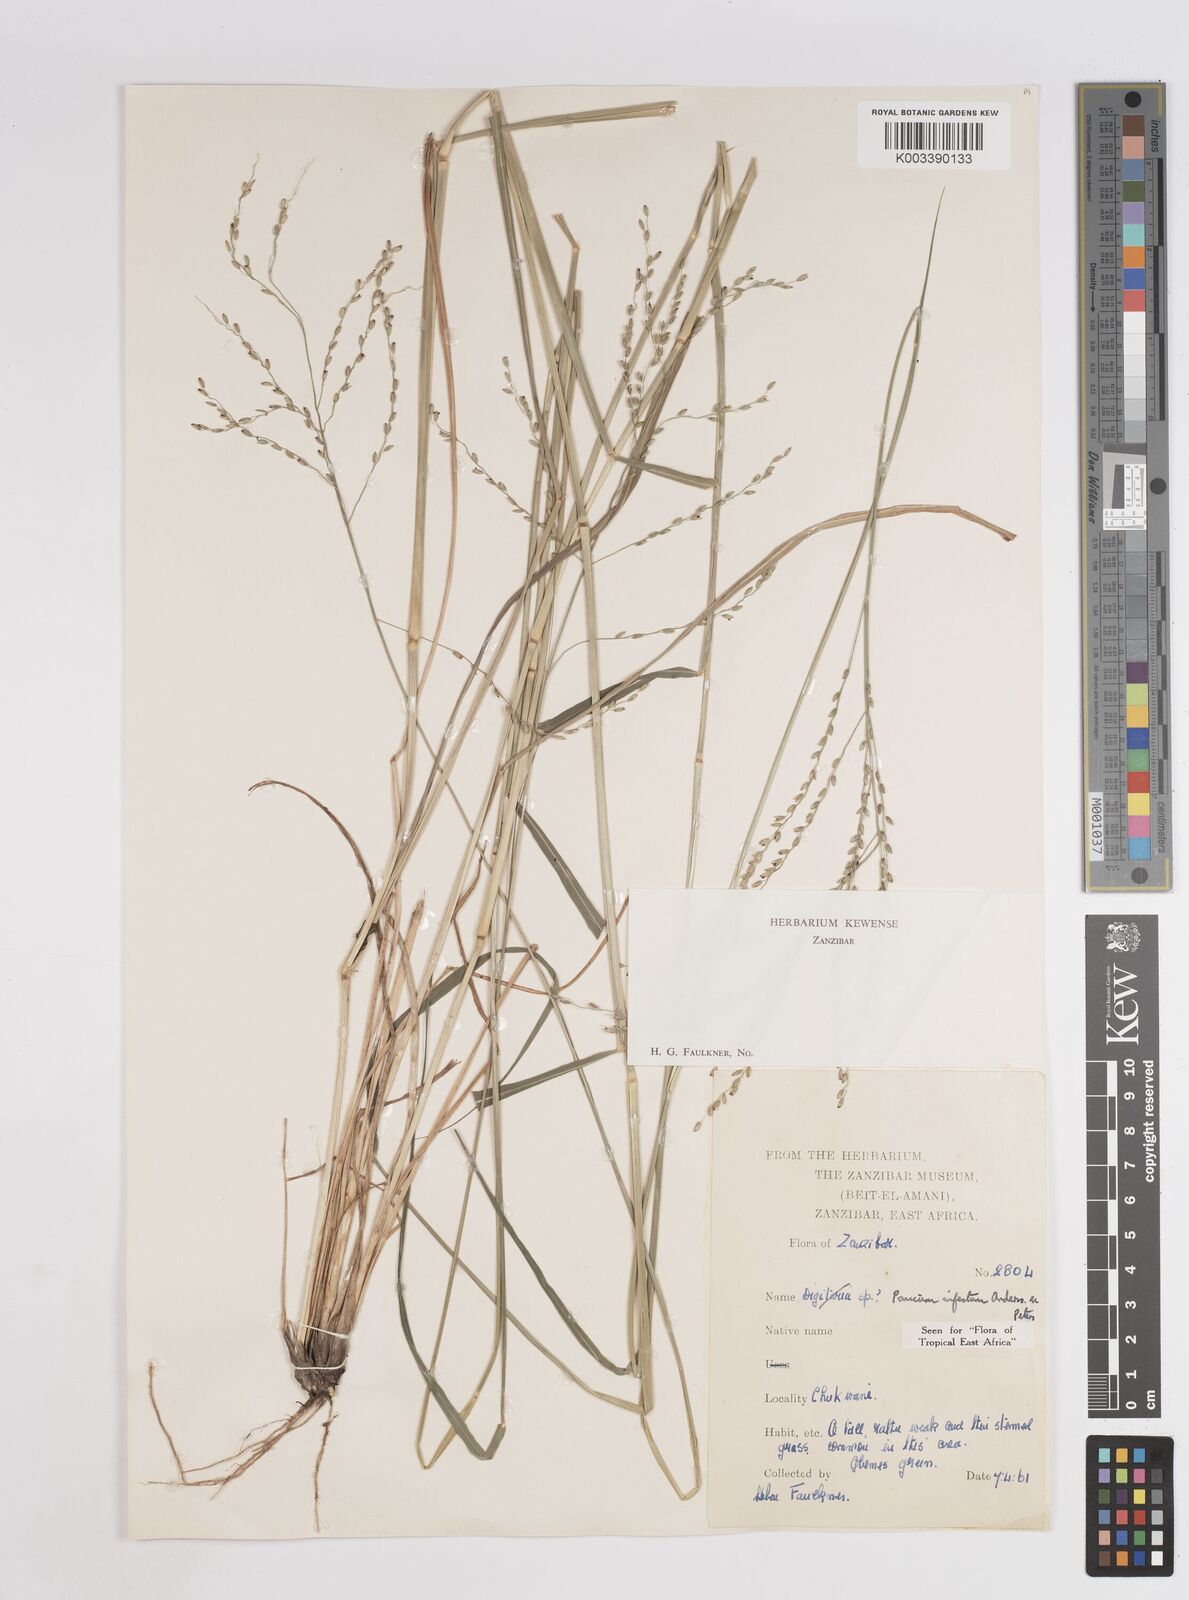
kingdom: Plantae
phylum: Tracheophyta
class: Liliopsida
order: Poales
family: Poaceae
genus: Megathyrsus
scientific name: Megathyrsus infestus
